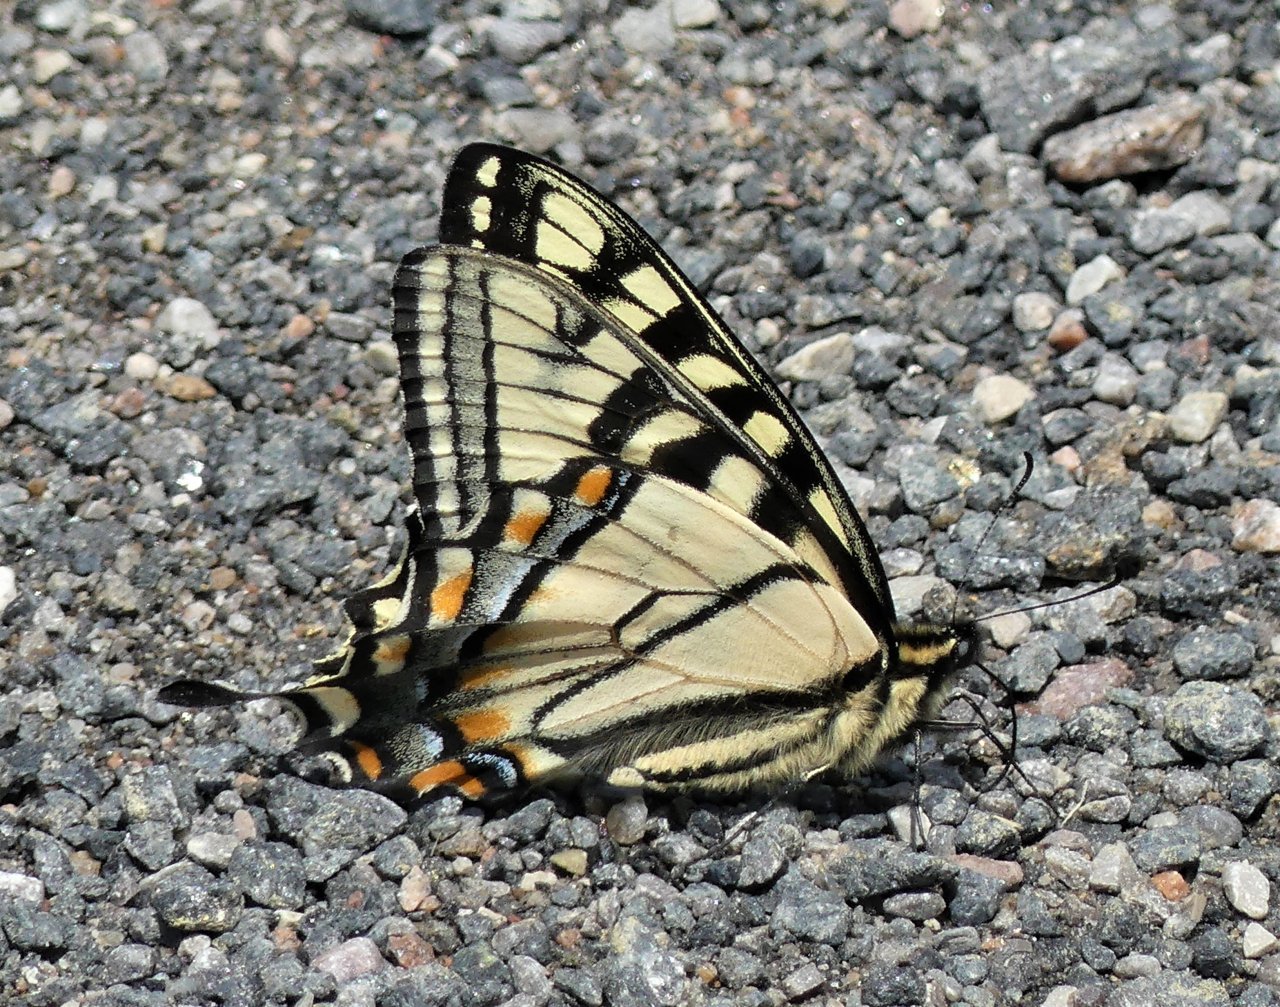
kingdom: Animalia
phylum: Arthropoda
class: Insecta
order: Lepidoptera
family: Papilionidae
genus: Pterourus
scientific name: Pterourus canadensis
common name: Canadian Tiger Swallowtail
